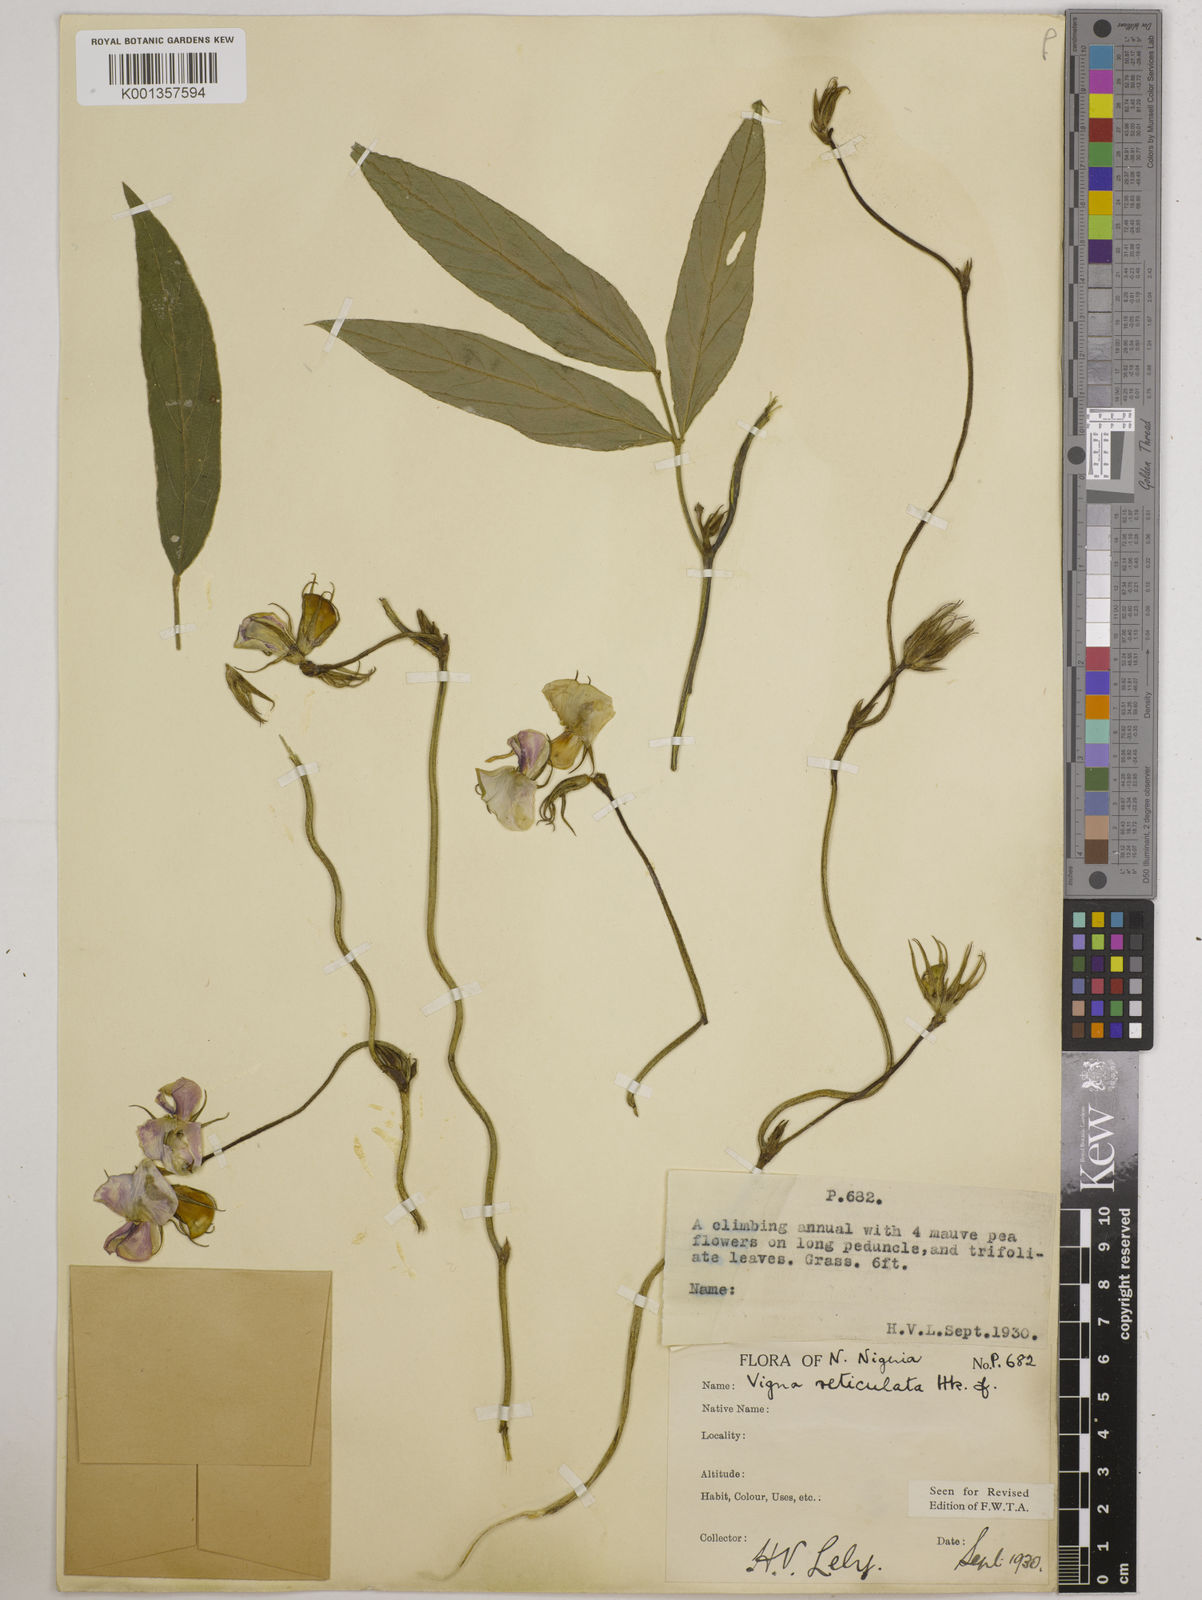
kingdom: Plantae
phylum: Tracheophyta
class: Magnoliopsida
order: Fabales
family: Fabaceae
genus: Vigna
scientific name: Vigna reticulata
